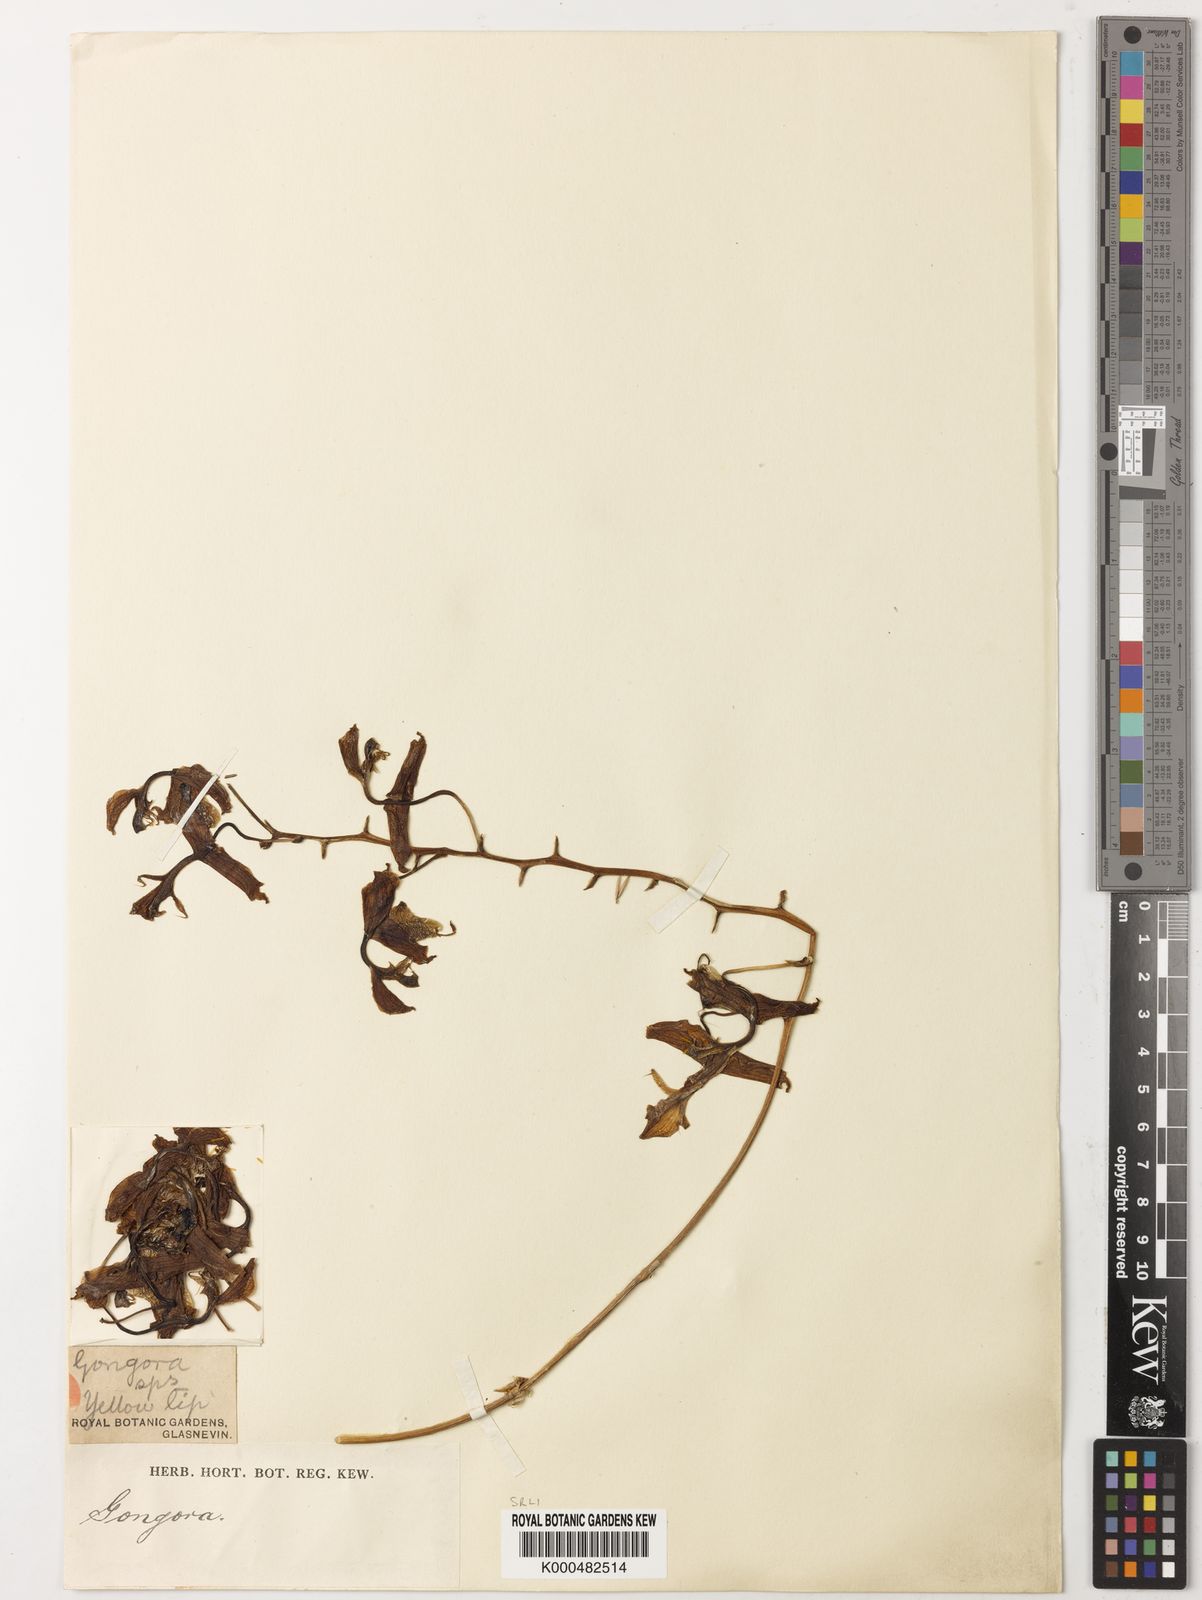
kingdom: Plantae
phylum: Tracheophyta
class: Liliopsida
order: Asparagales
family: Orchidaceae
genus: Gongora
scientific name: Gongora portentosa
